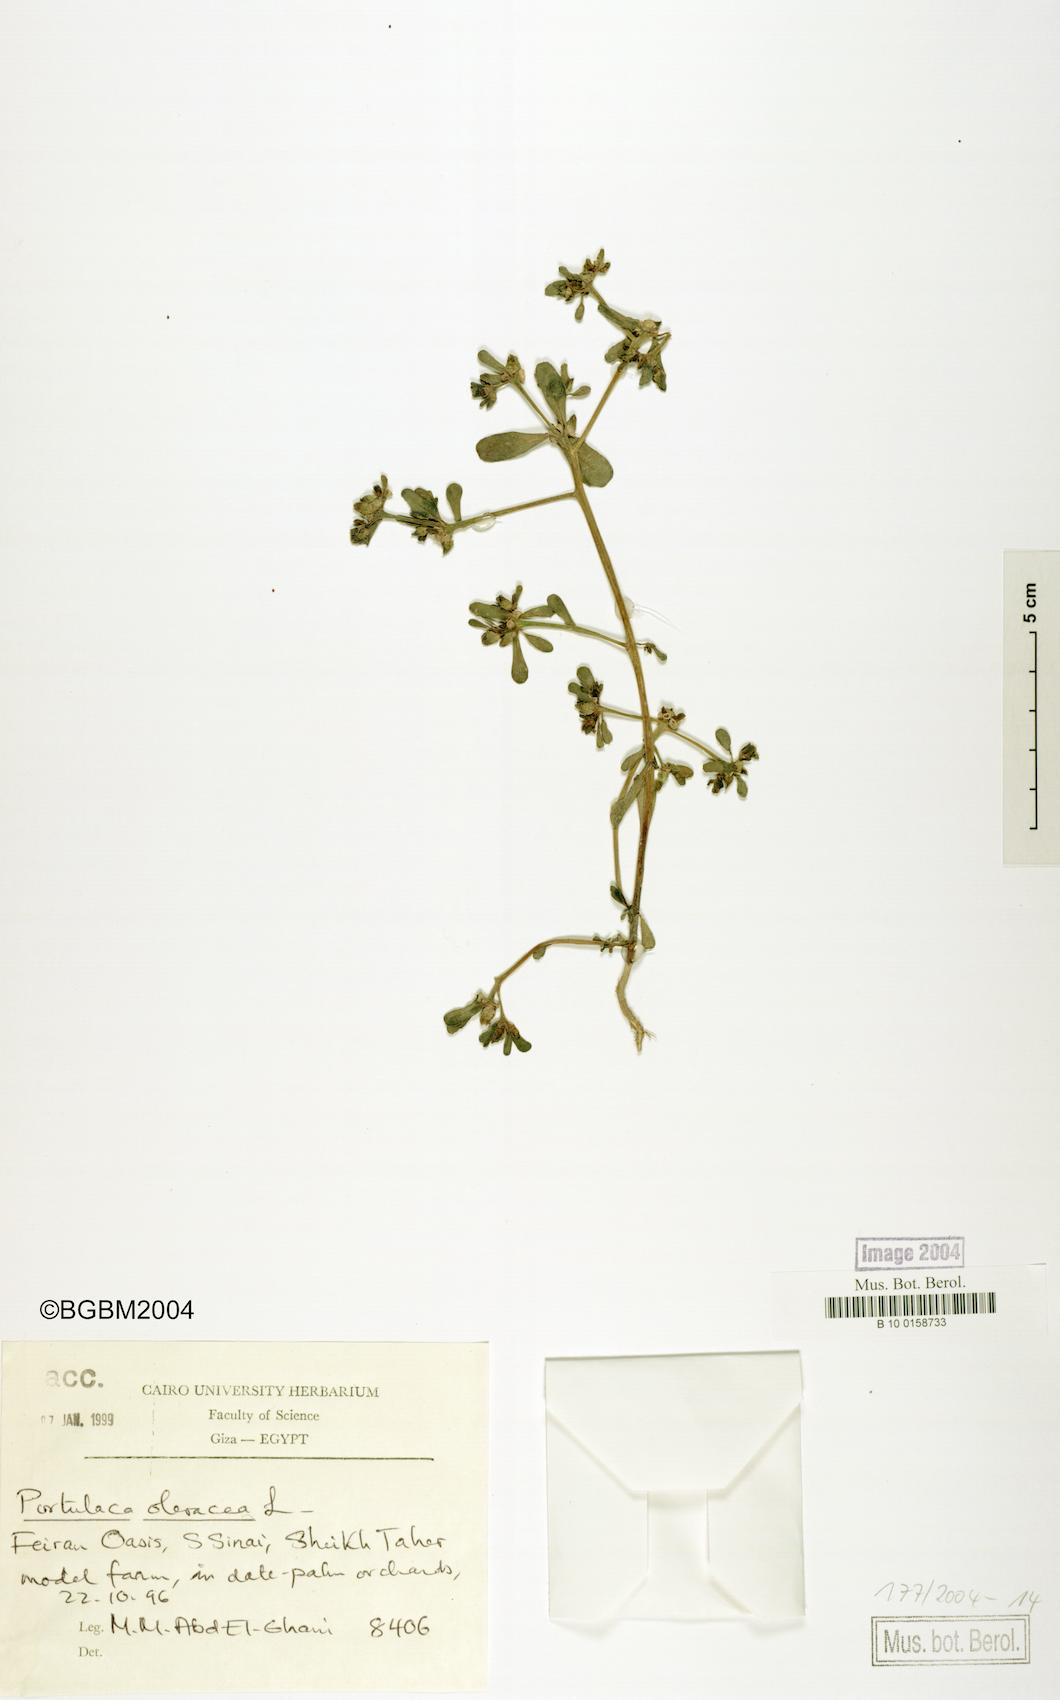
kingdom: Plantae
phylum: Tracheophyta
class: Magnoliopsida
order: Caryophyllales
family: Portulacaceae
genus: Portulaca
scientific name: Portulaca oleracea
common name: Common purslane
